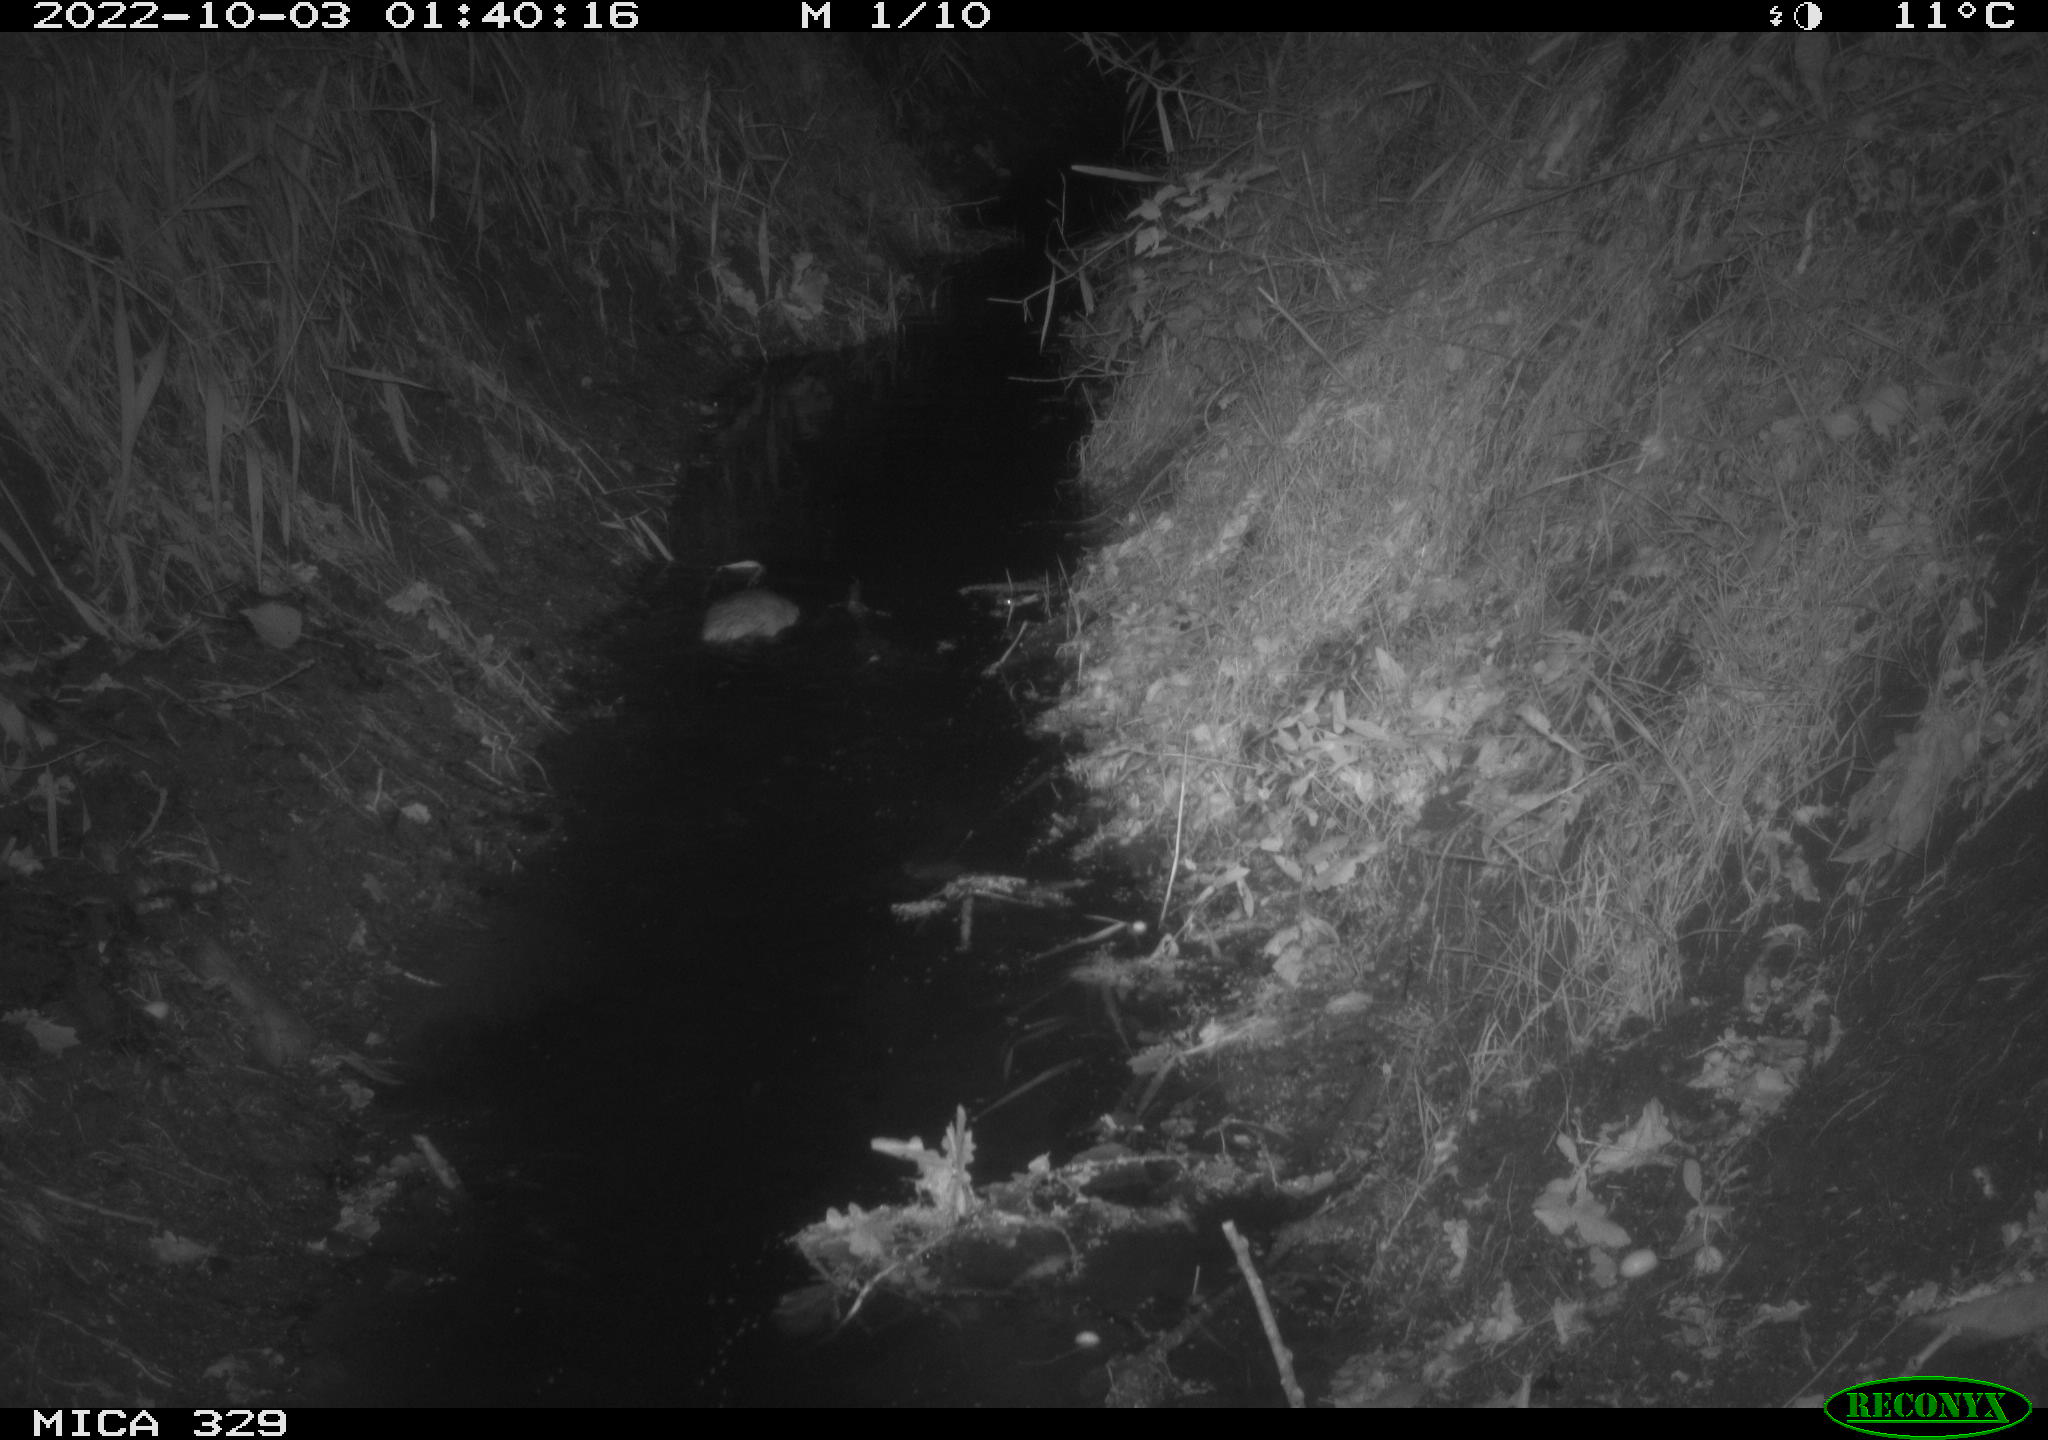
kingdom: Animalia
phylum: Chordata
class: Mammalia
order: Rodentia
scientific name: Rodentia
